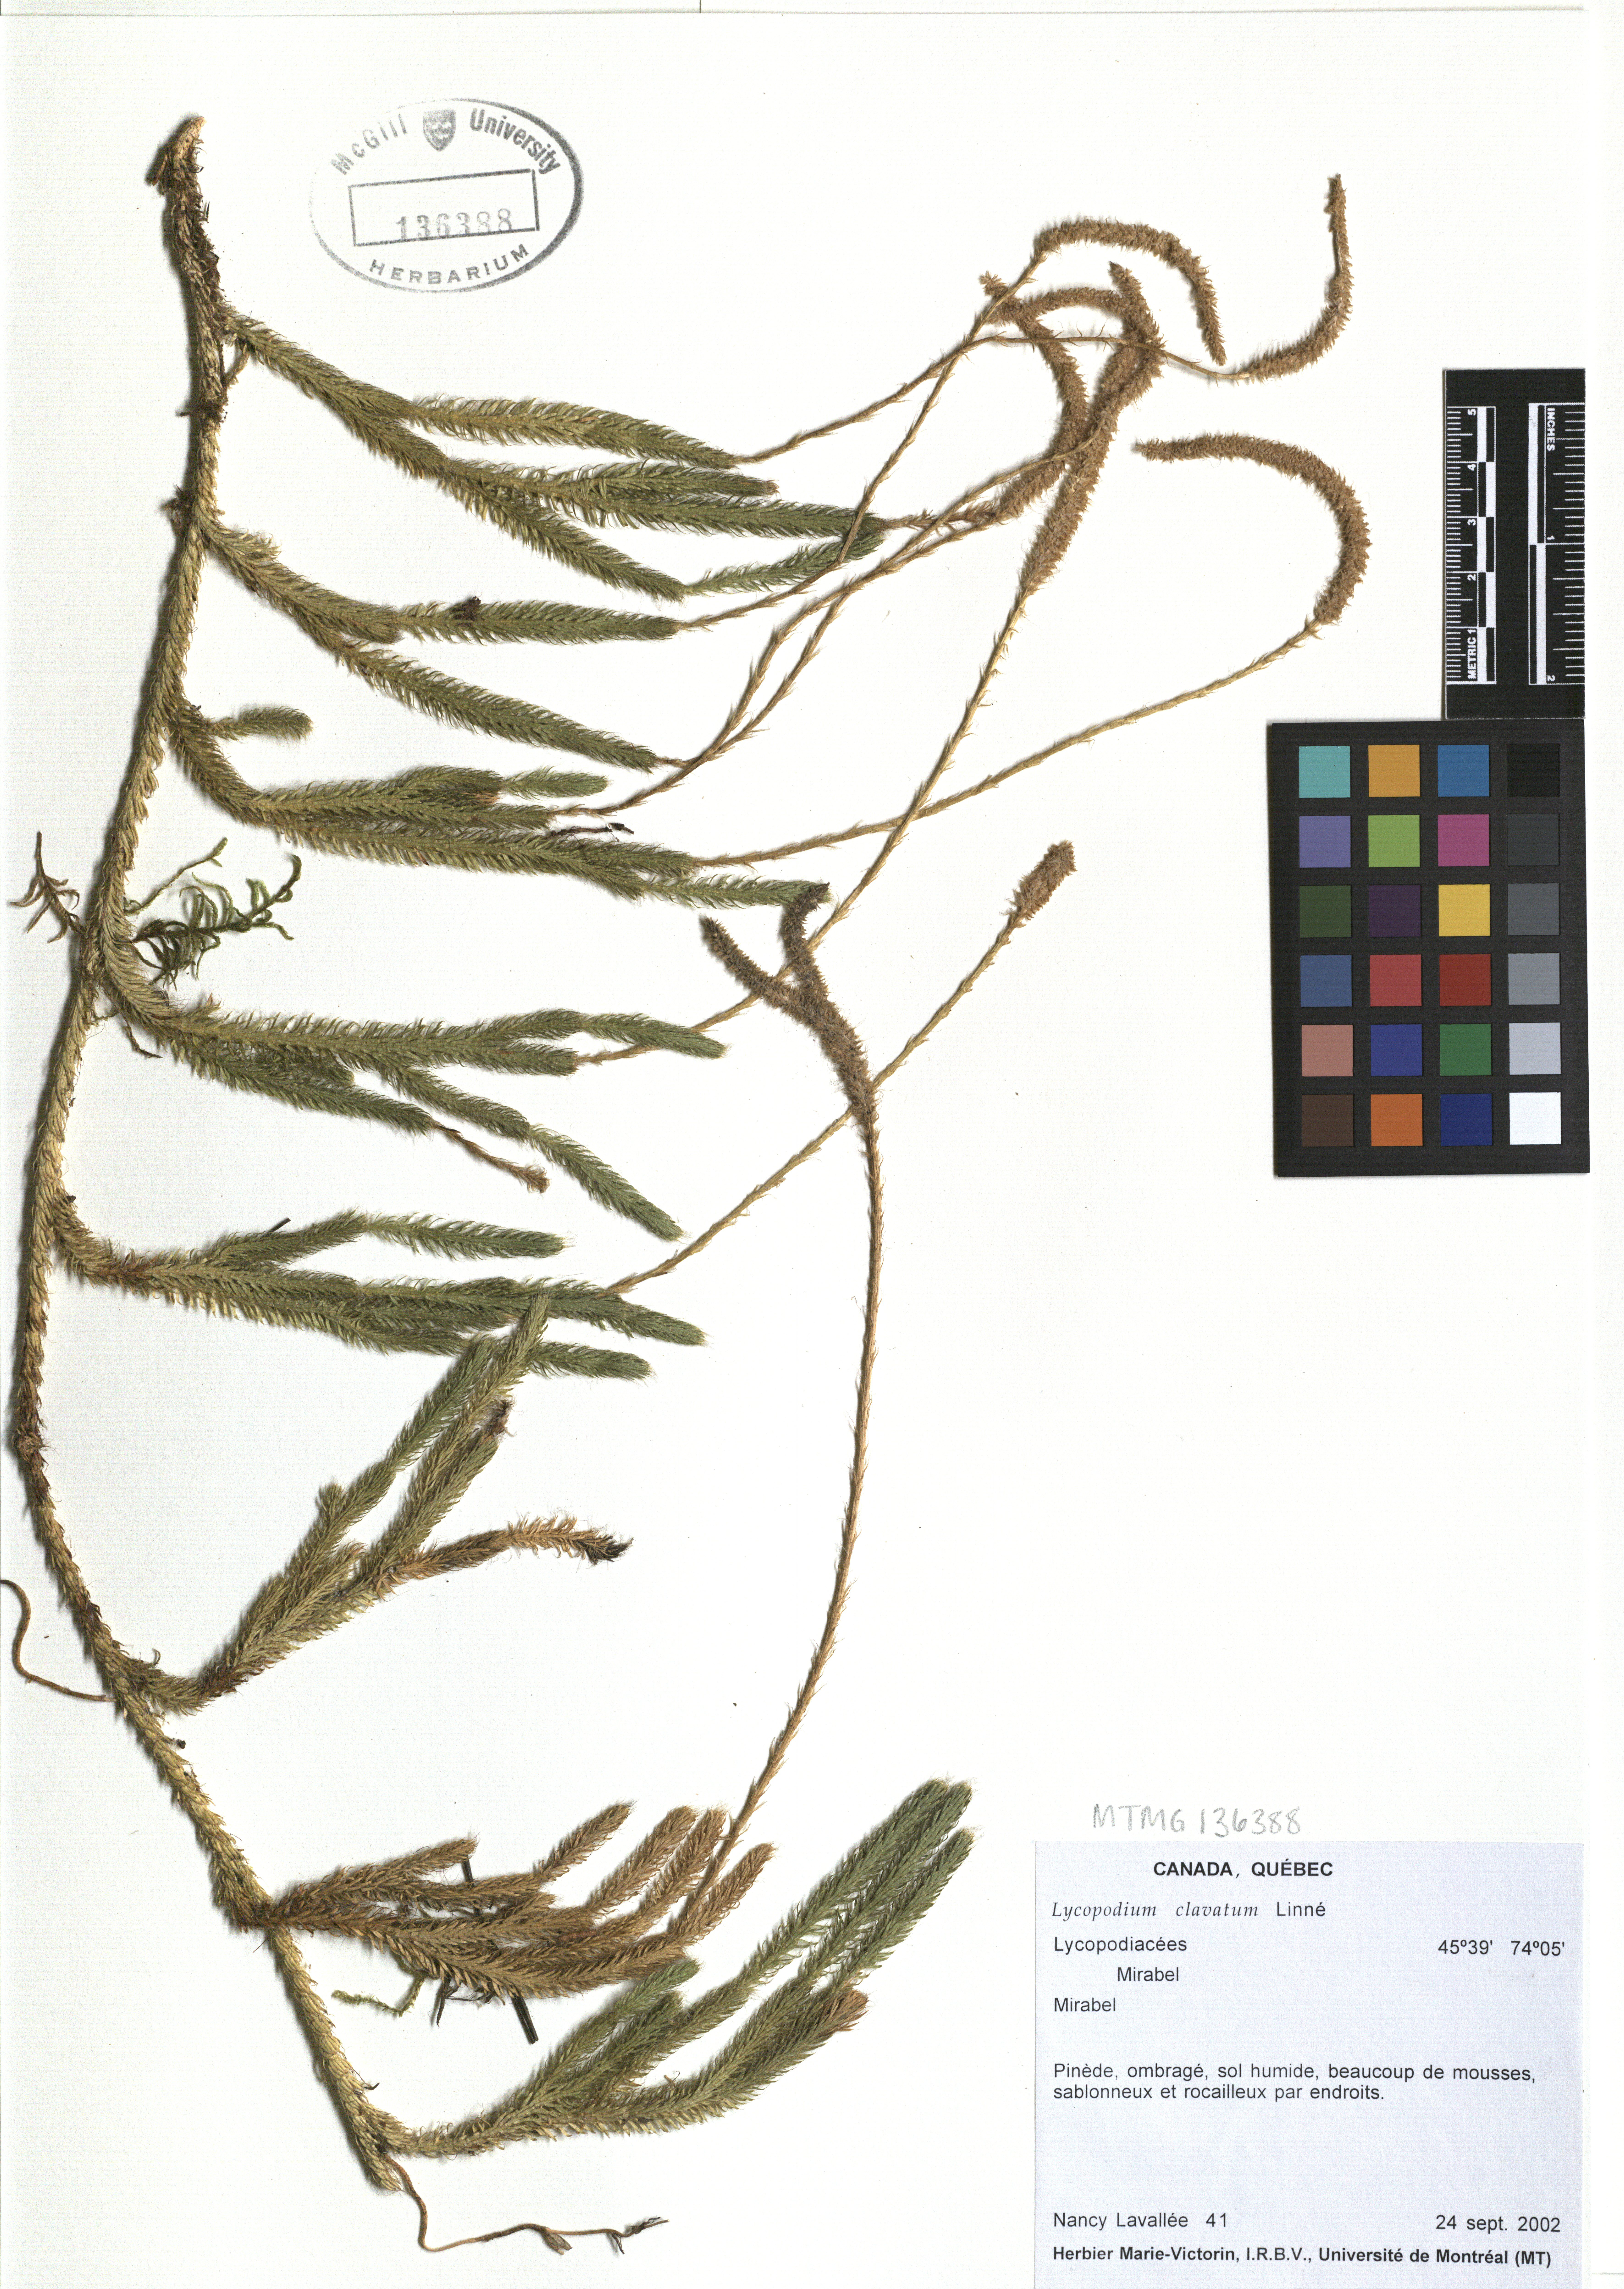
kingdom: Plantae
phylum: Tracheophyta
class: Lycopodiopsida
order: Lycopodiales
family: Lycopodiaceae
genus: Lycopodium
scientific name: Lycopodium clavatum
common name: Stag's-horn clubmoss
